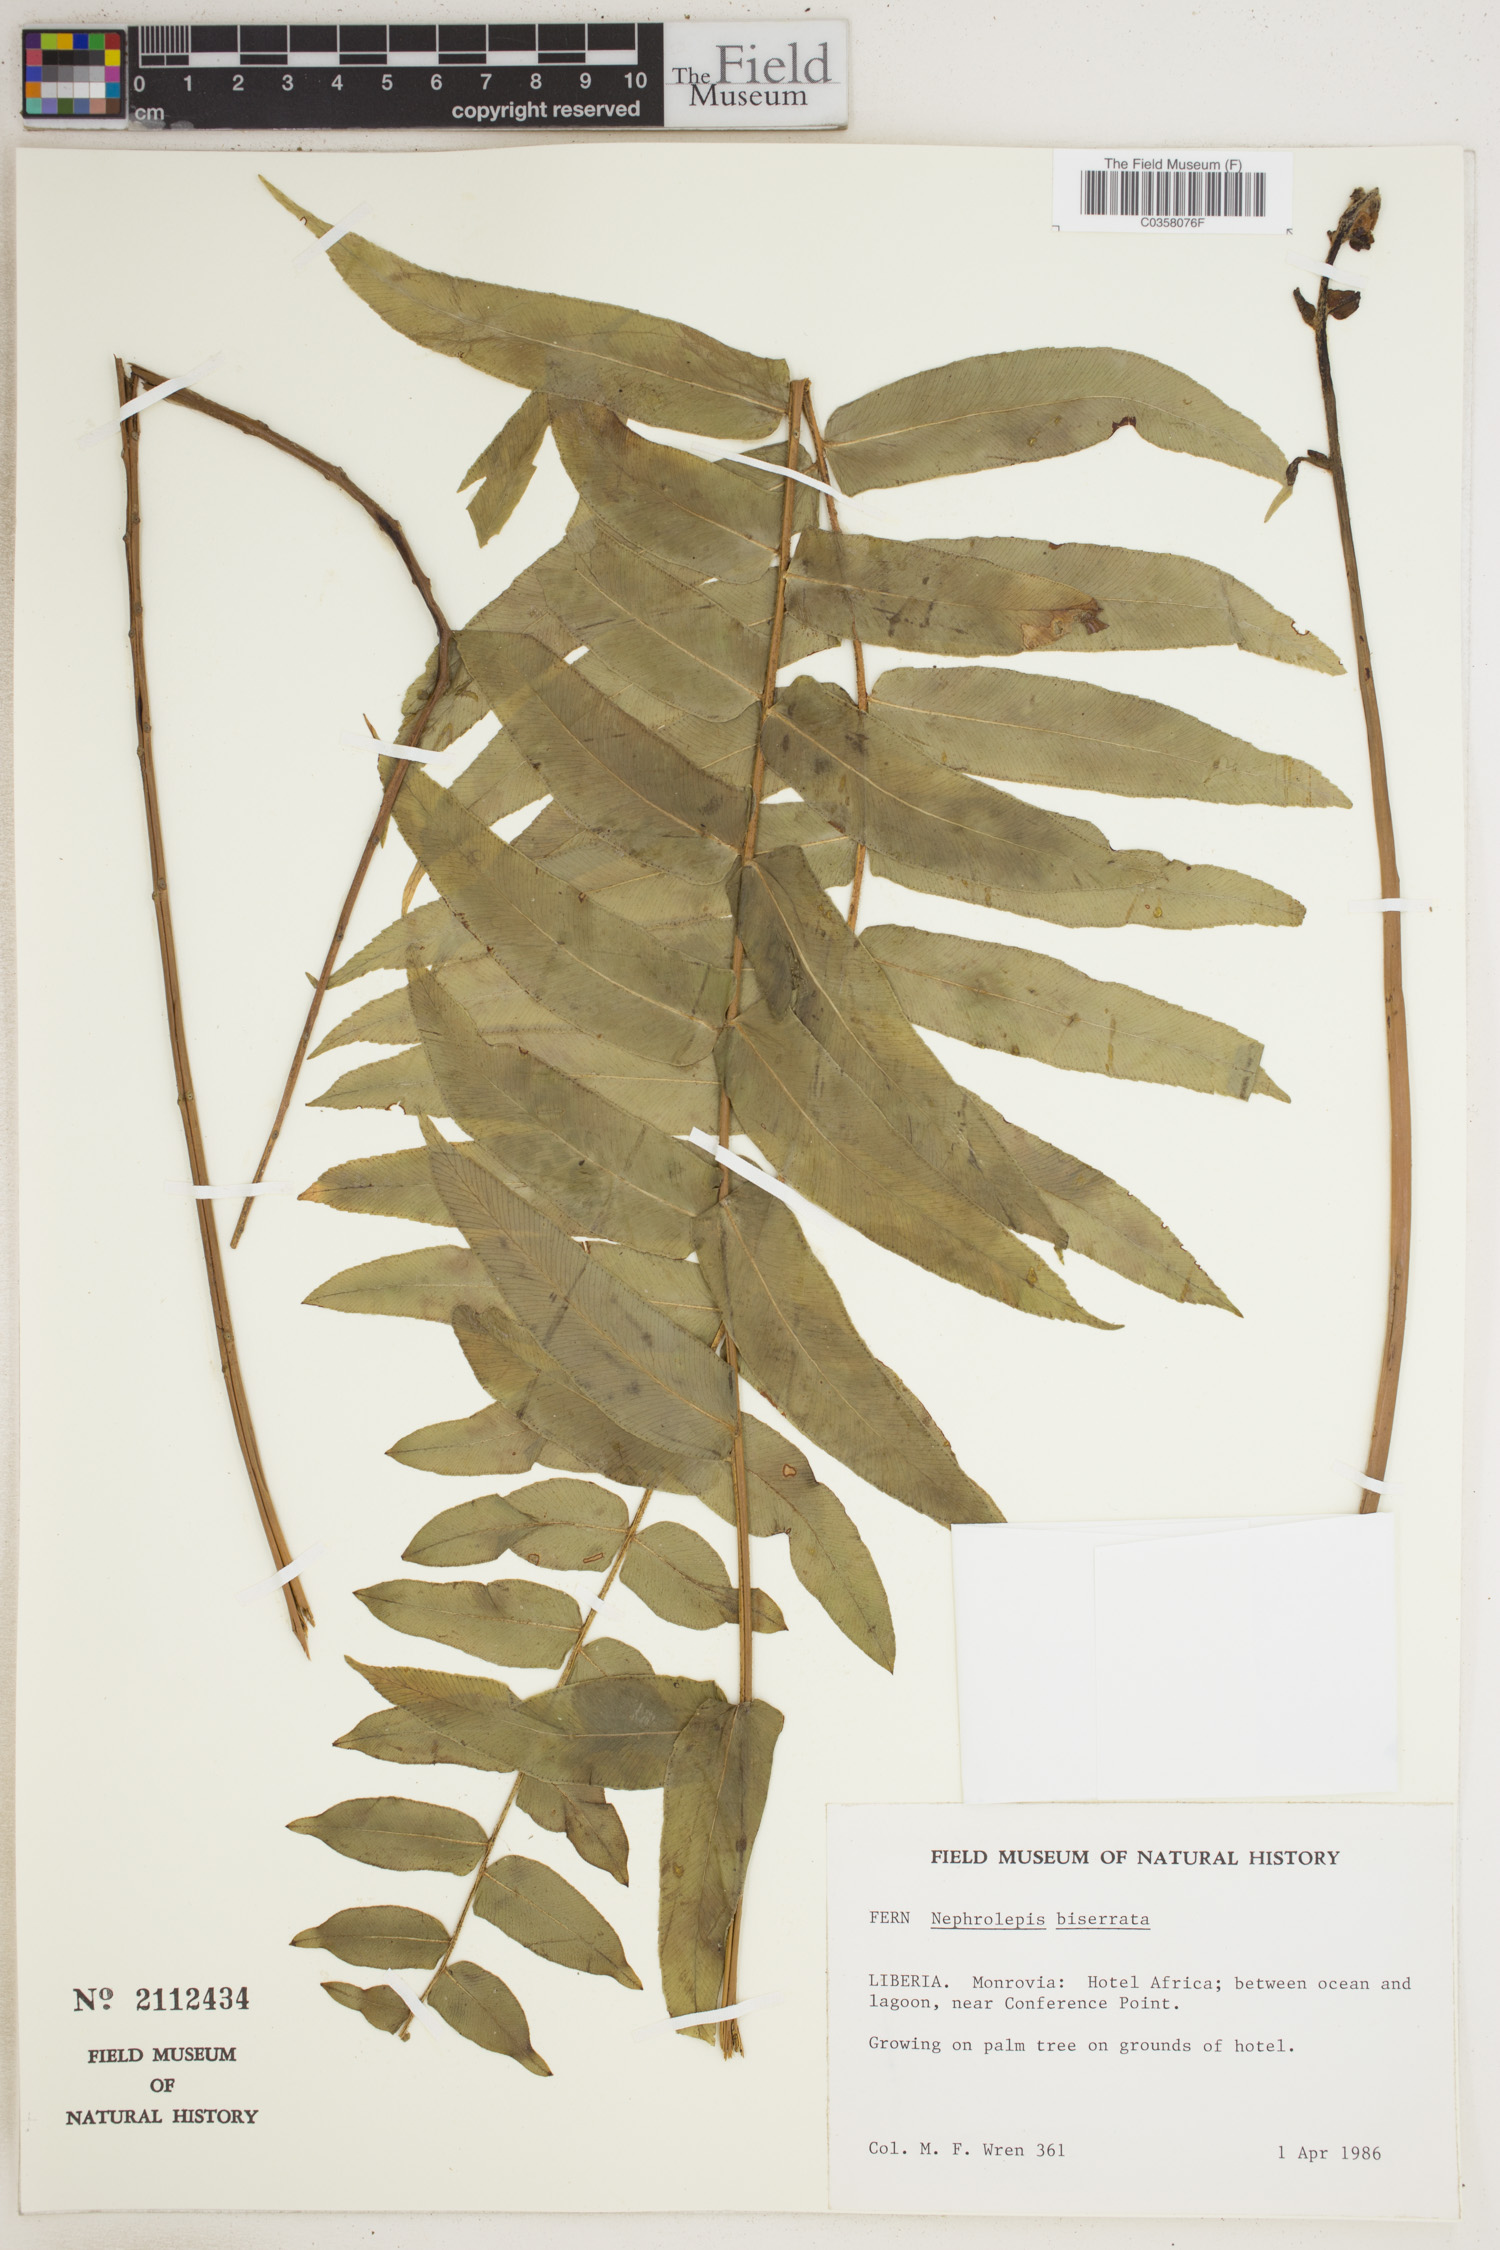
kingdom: Plantae
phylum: Tracheophyta
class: Polypodiopsida
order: Polypodiales
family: Nephrolepidaceae
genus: Nephrolepis
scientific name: Nephrolepis biserrata
